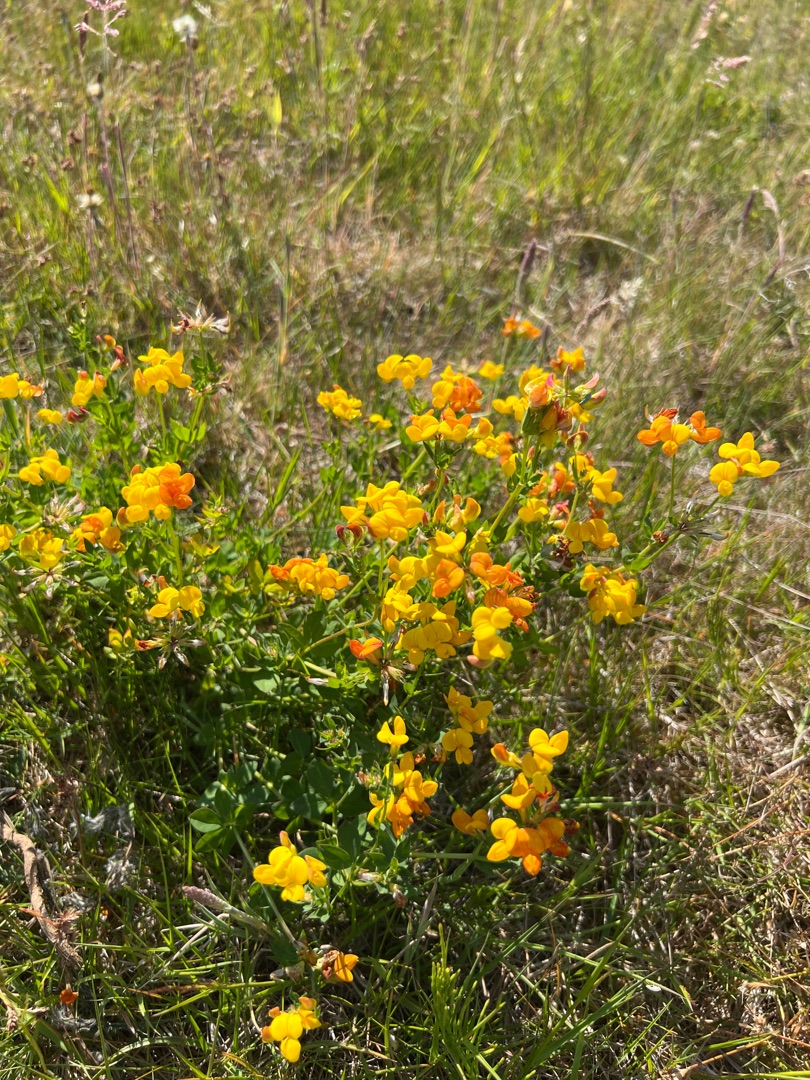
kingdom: Plantae
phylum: Tracheophyta
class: Magnoliopsida
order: Fabales
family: Fabaceae
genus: Lotus
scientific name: Lotus corniculatus
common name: Almindelig kællingetand
